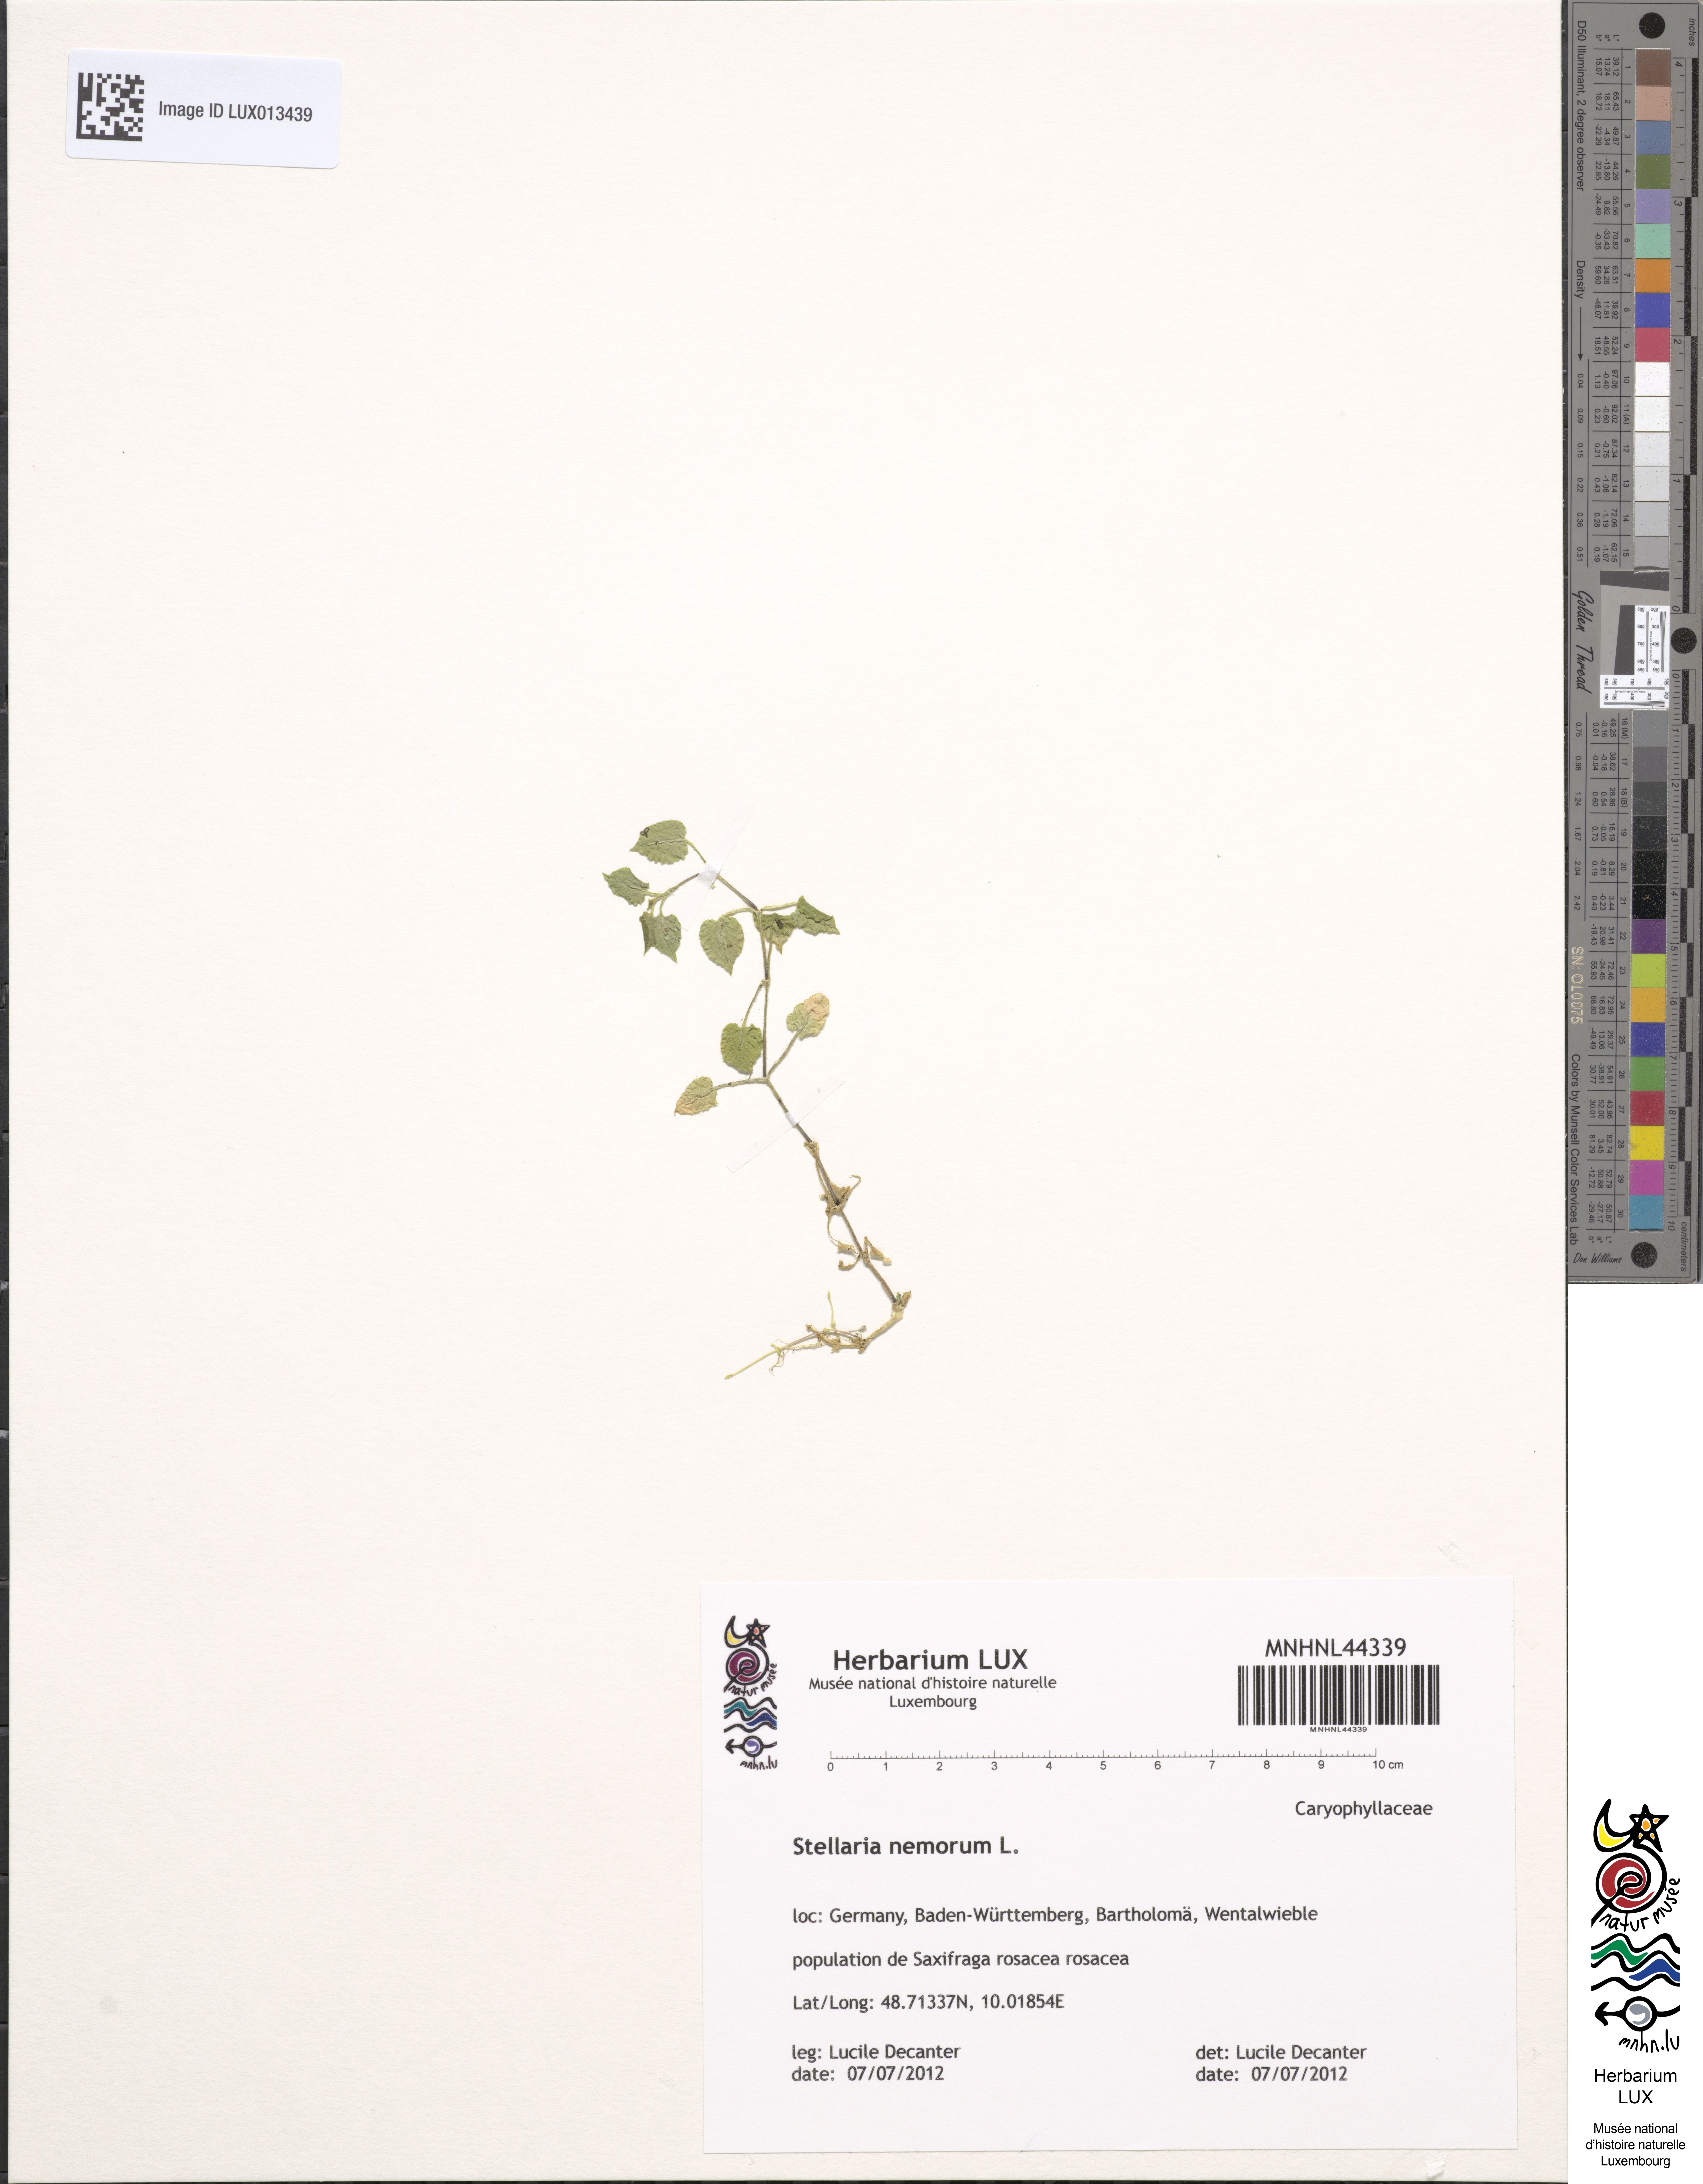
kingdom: Plantae
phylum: Tracheophyta
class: Magnoliopsida
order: Caryophyllales
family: Caryophyllaceae
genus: Stellaria
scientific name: Stellaria nemorum
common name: Wood stitchwort
